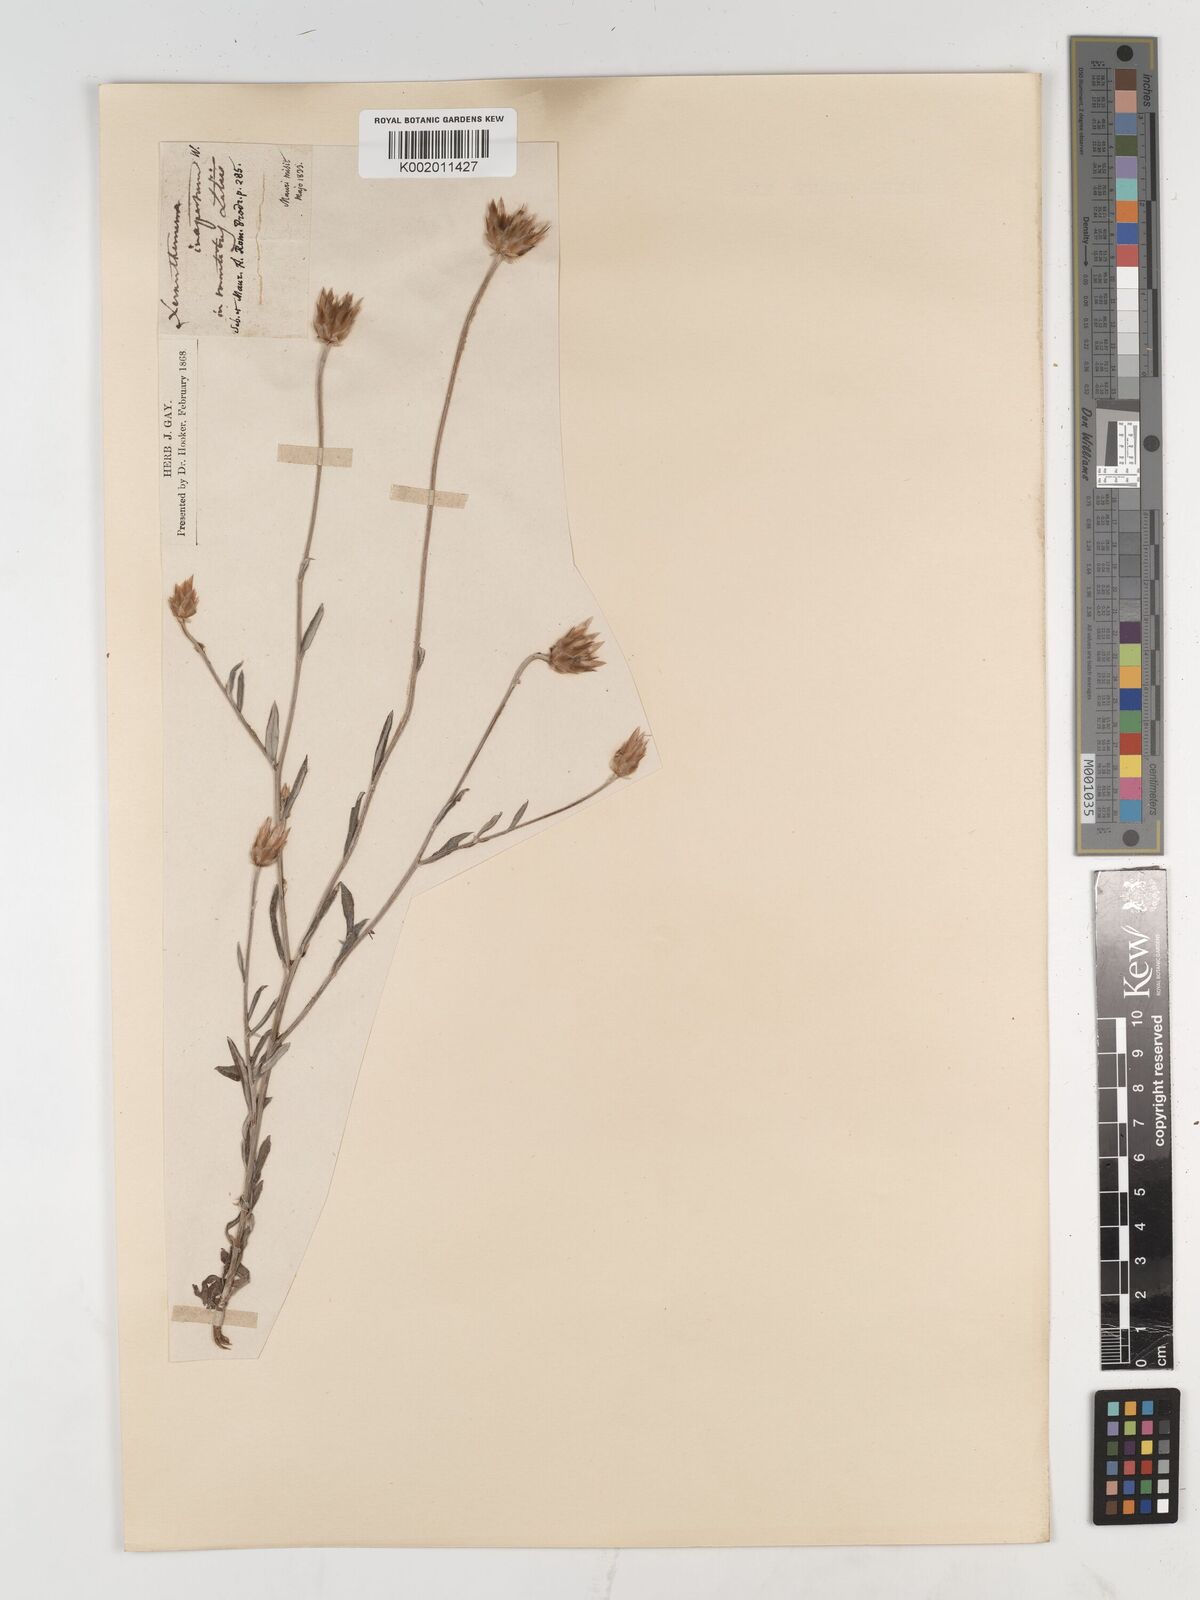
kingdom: Plantae
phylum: Tracheophyta
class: Magnoliopsida
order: Asterales
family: Asteraceae
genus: Xeranthemum
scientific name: Xeranthemum inapertum
